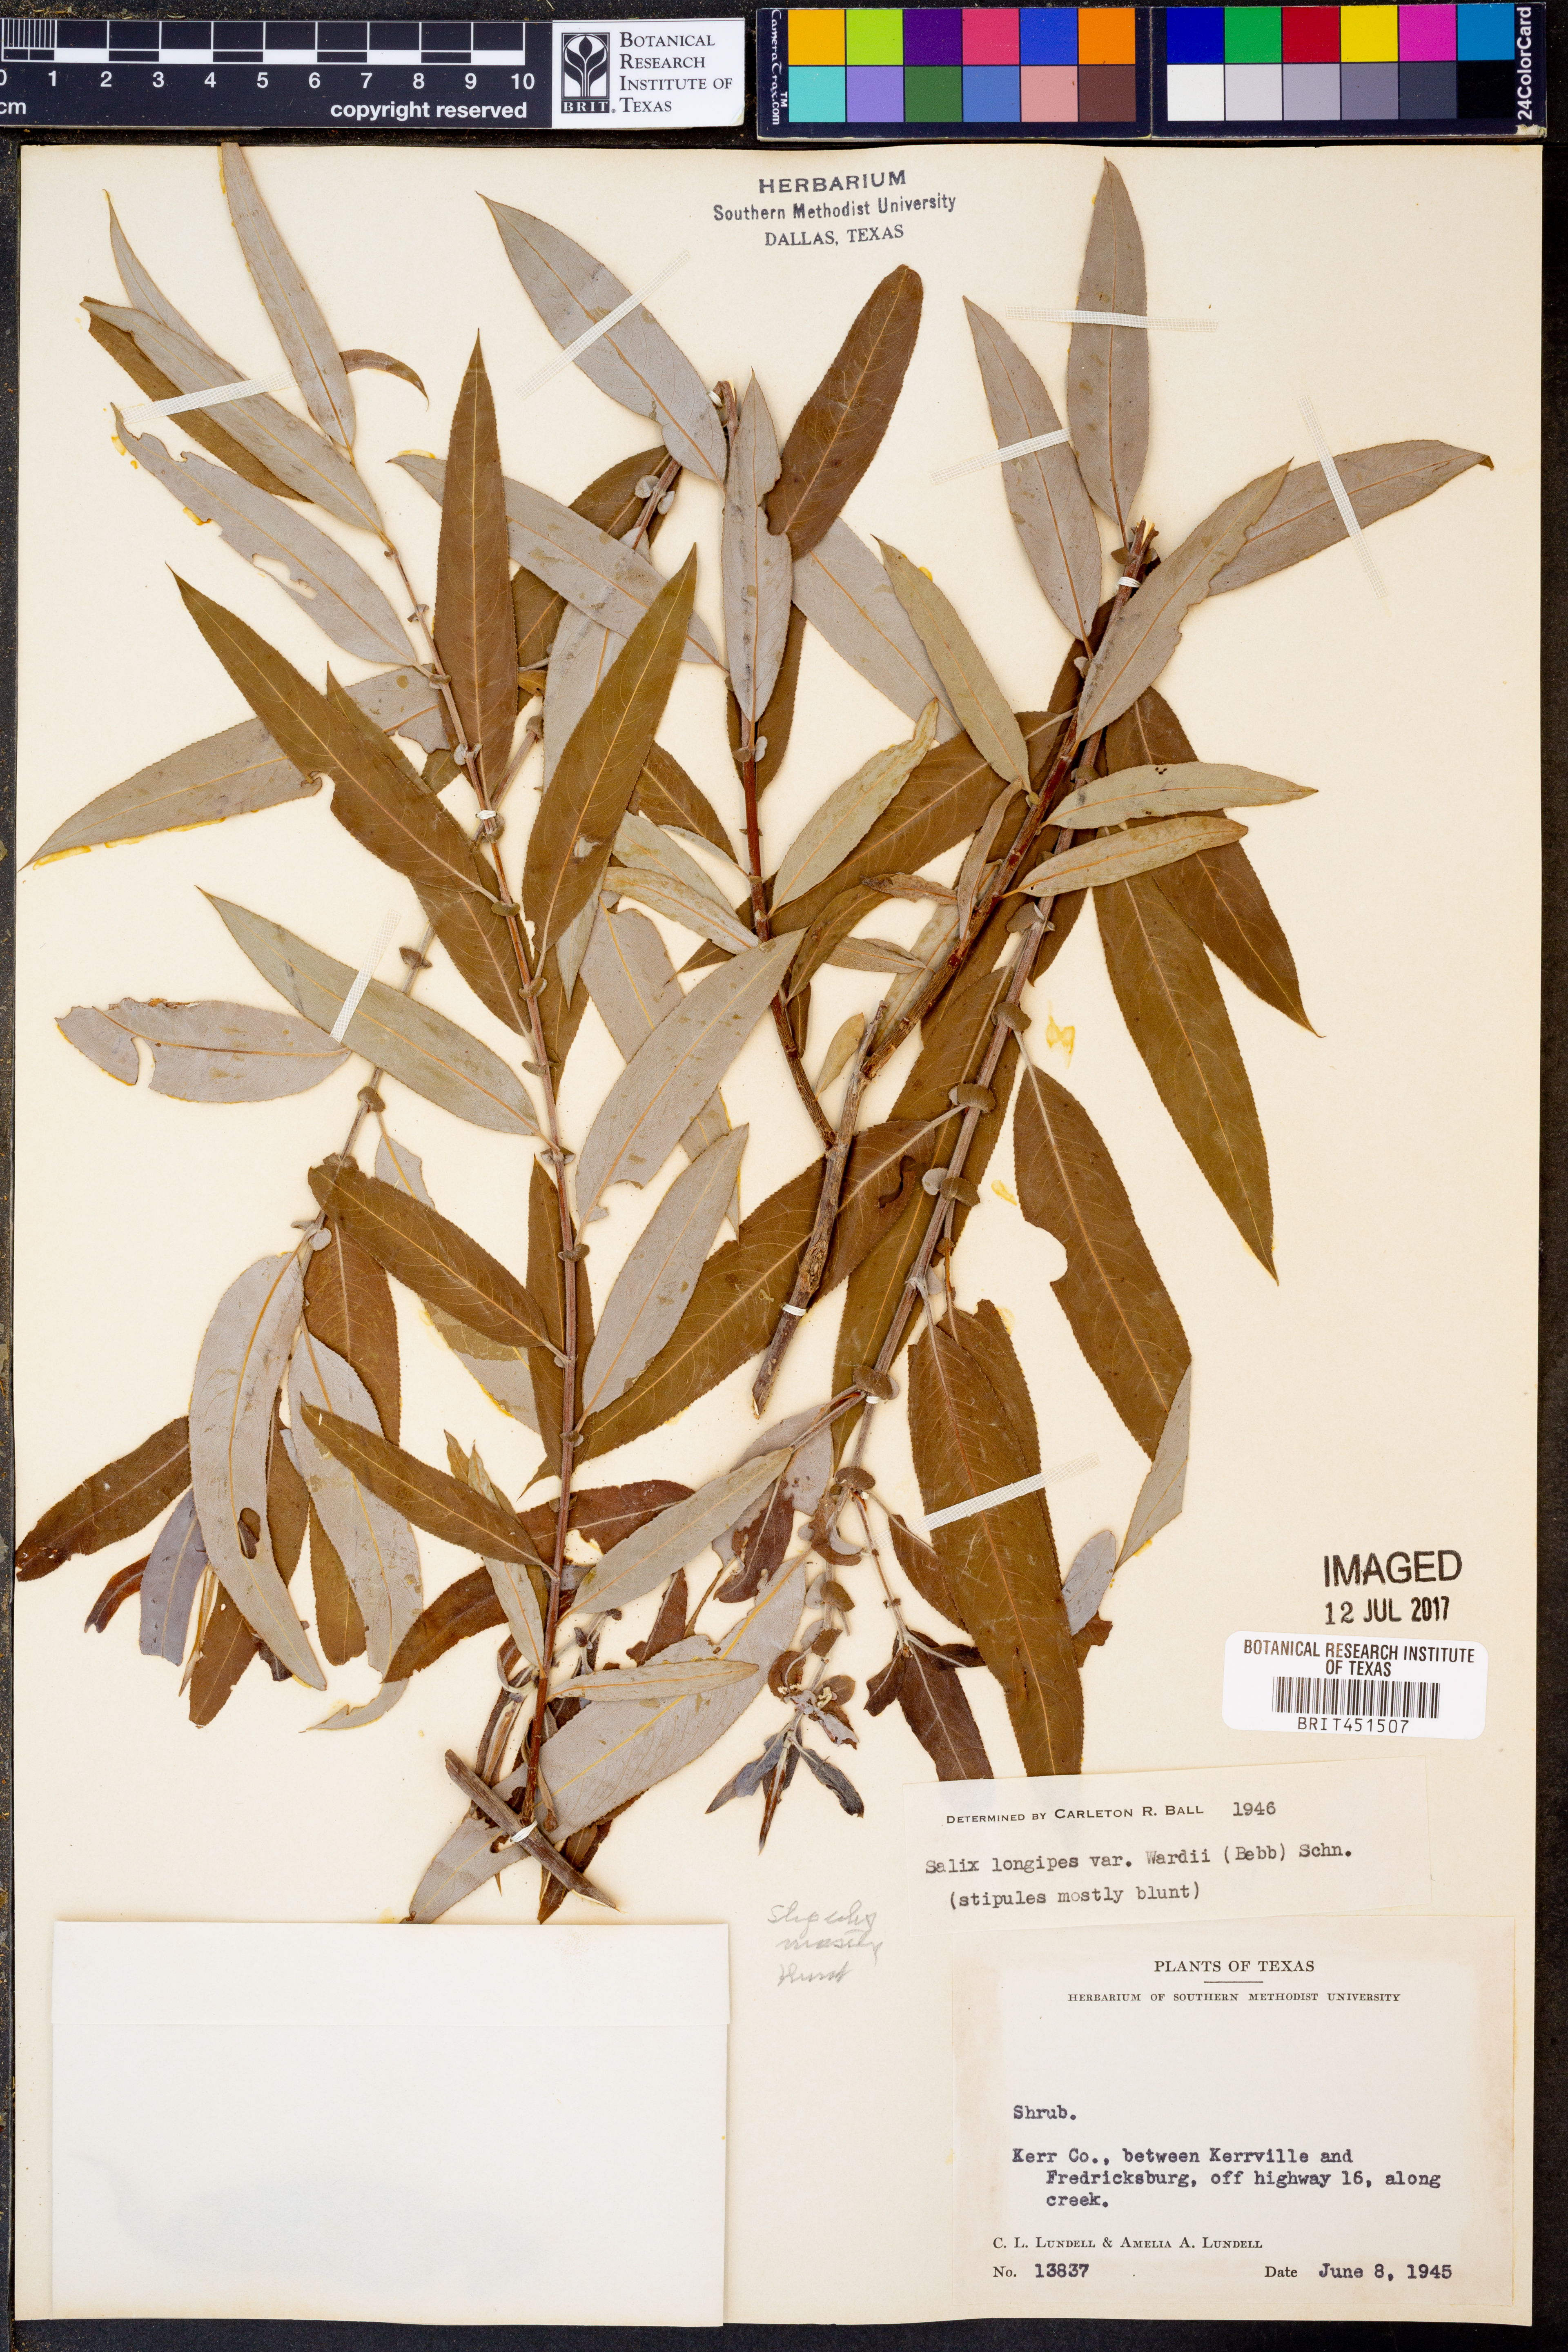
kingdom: Plantae
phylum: Tracheophyta
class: Magnoliopsida
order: Malpighiales
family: Salicaceae
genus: Salix
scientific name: Salix caroliniana
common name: Carolina willow
